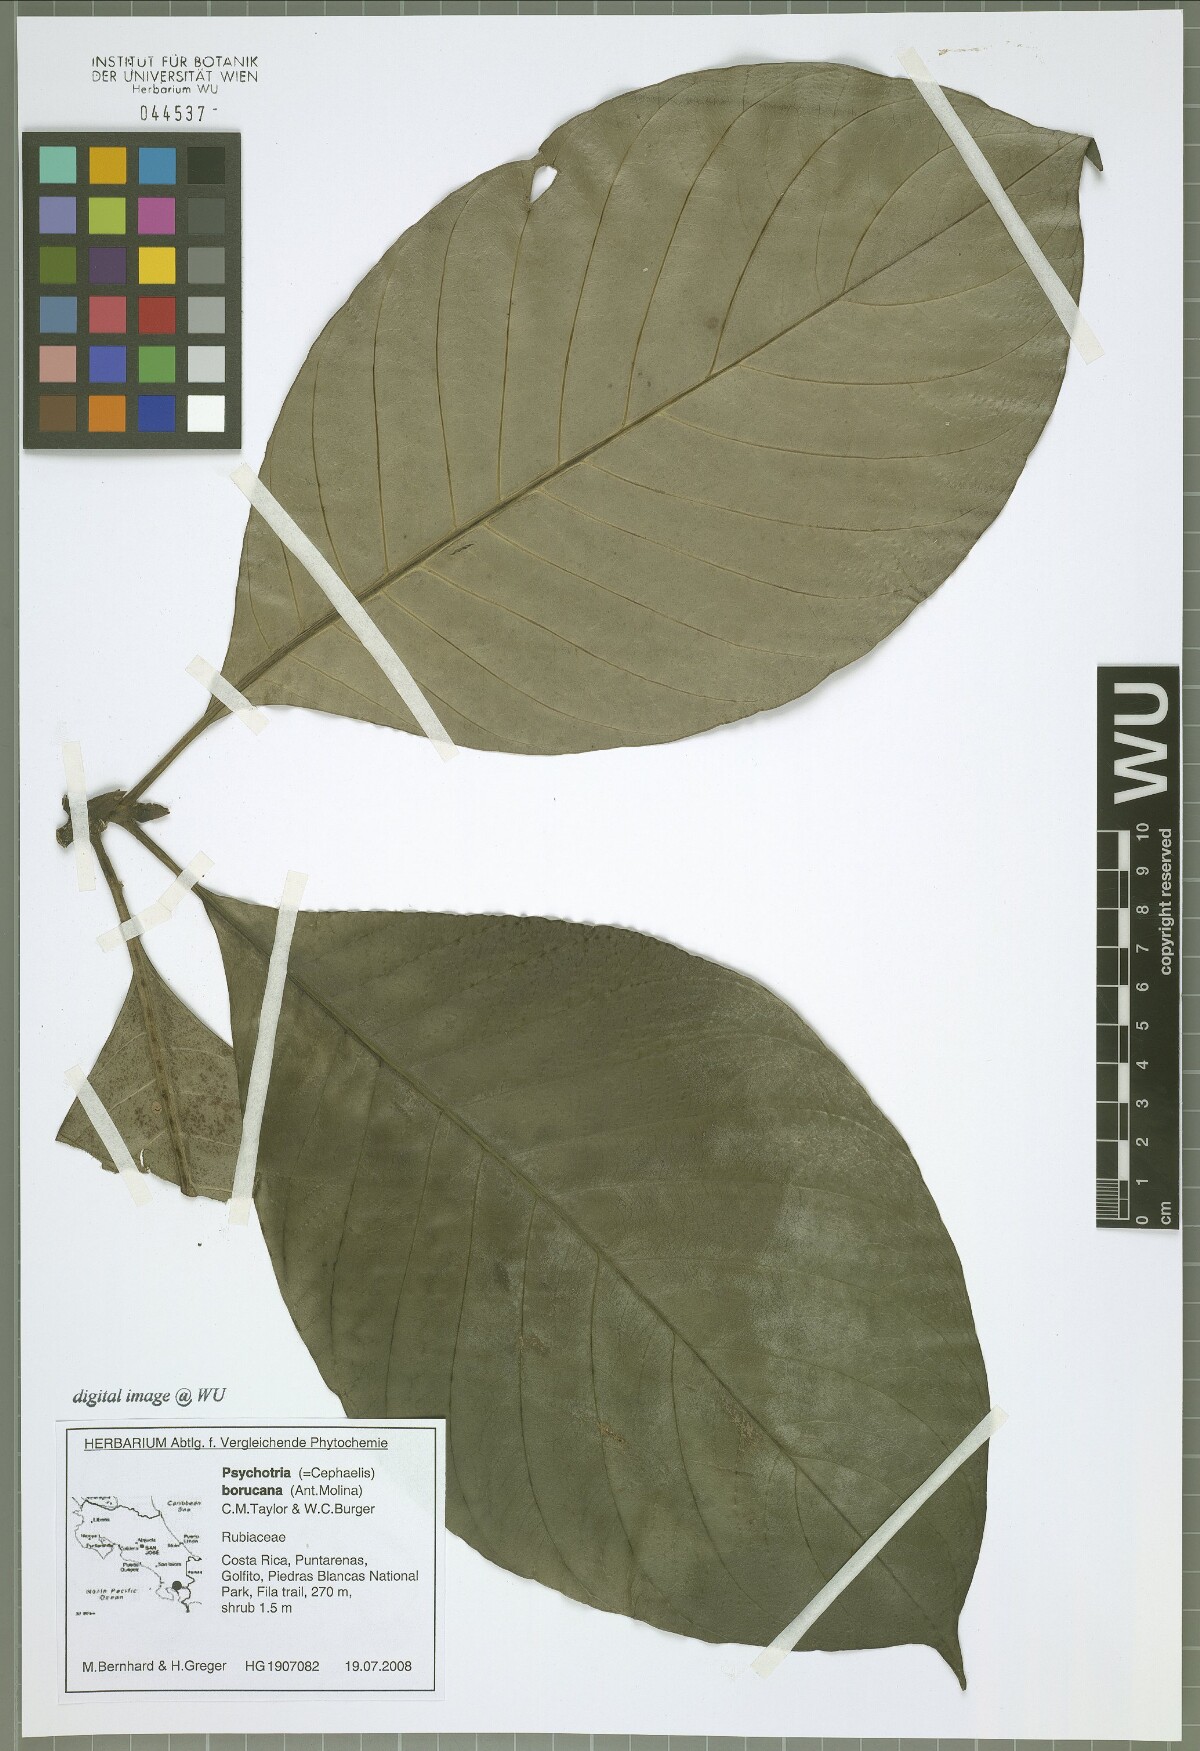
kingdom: Plantae
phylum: Tracheophyta
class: Magnoliopsida
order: Gentianales
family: Rubiaceae
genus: Carapichea
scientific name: Carapichea affinis
